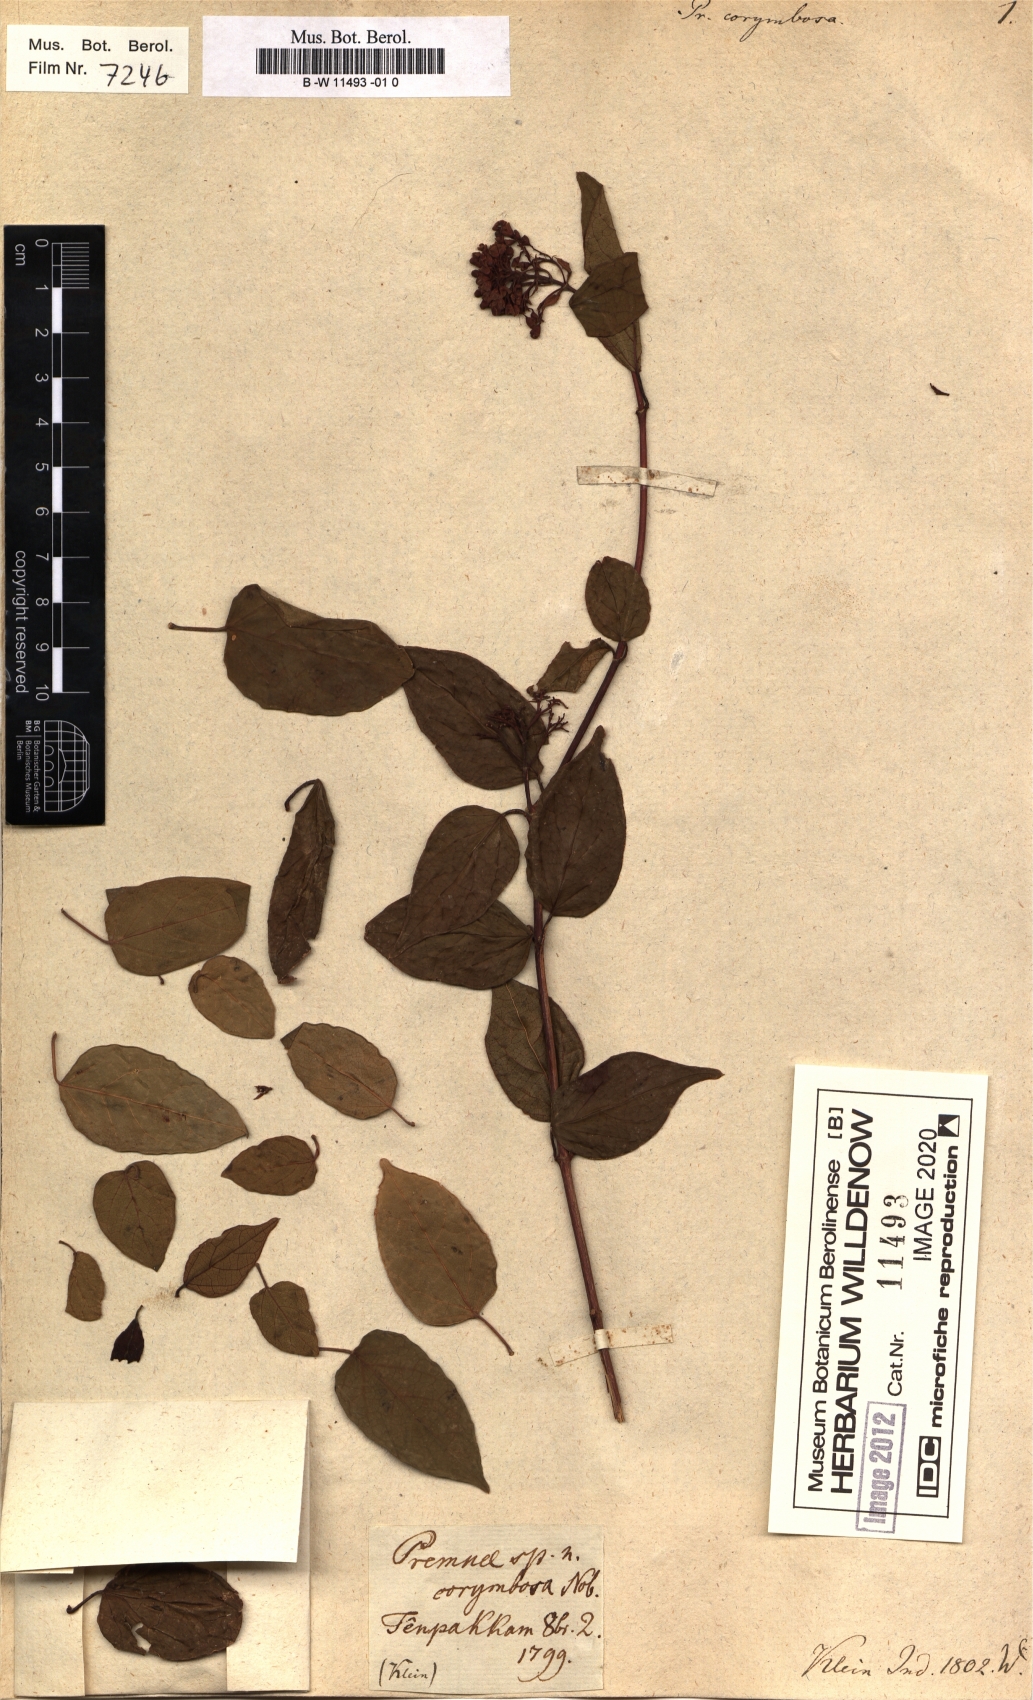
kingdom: Plantae
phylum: Tracheophyta
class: Magnoliopsida
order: Lamiales
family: Lamiaceae
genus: Premna
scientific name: Premna corymbosa
